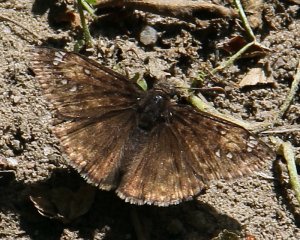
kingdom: Animalia
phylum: Arthropoda
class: Insecta
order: Lepidoptera
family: Hesperiidae
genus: Erynnis
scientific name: Erynnis
